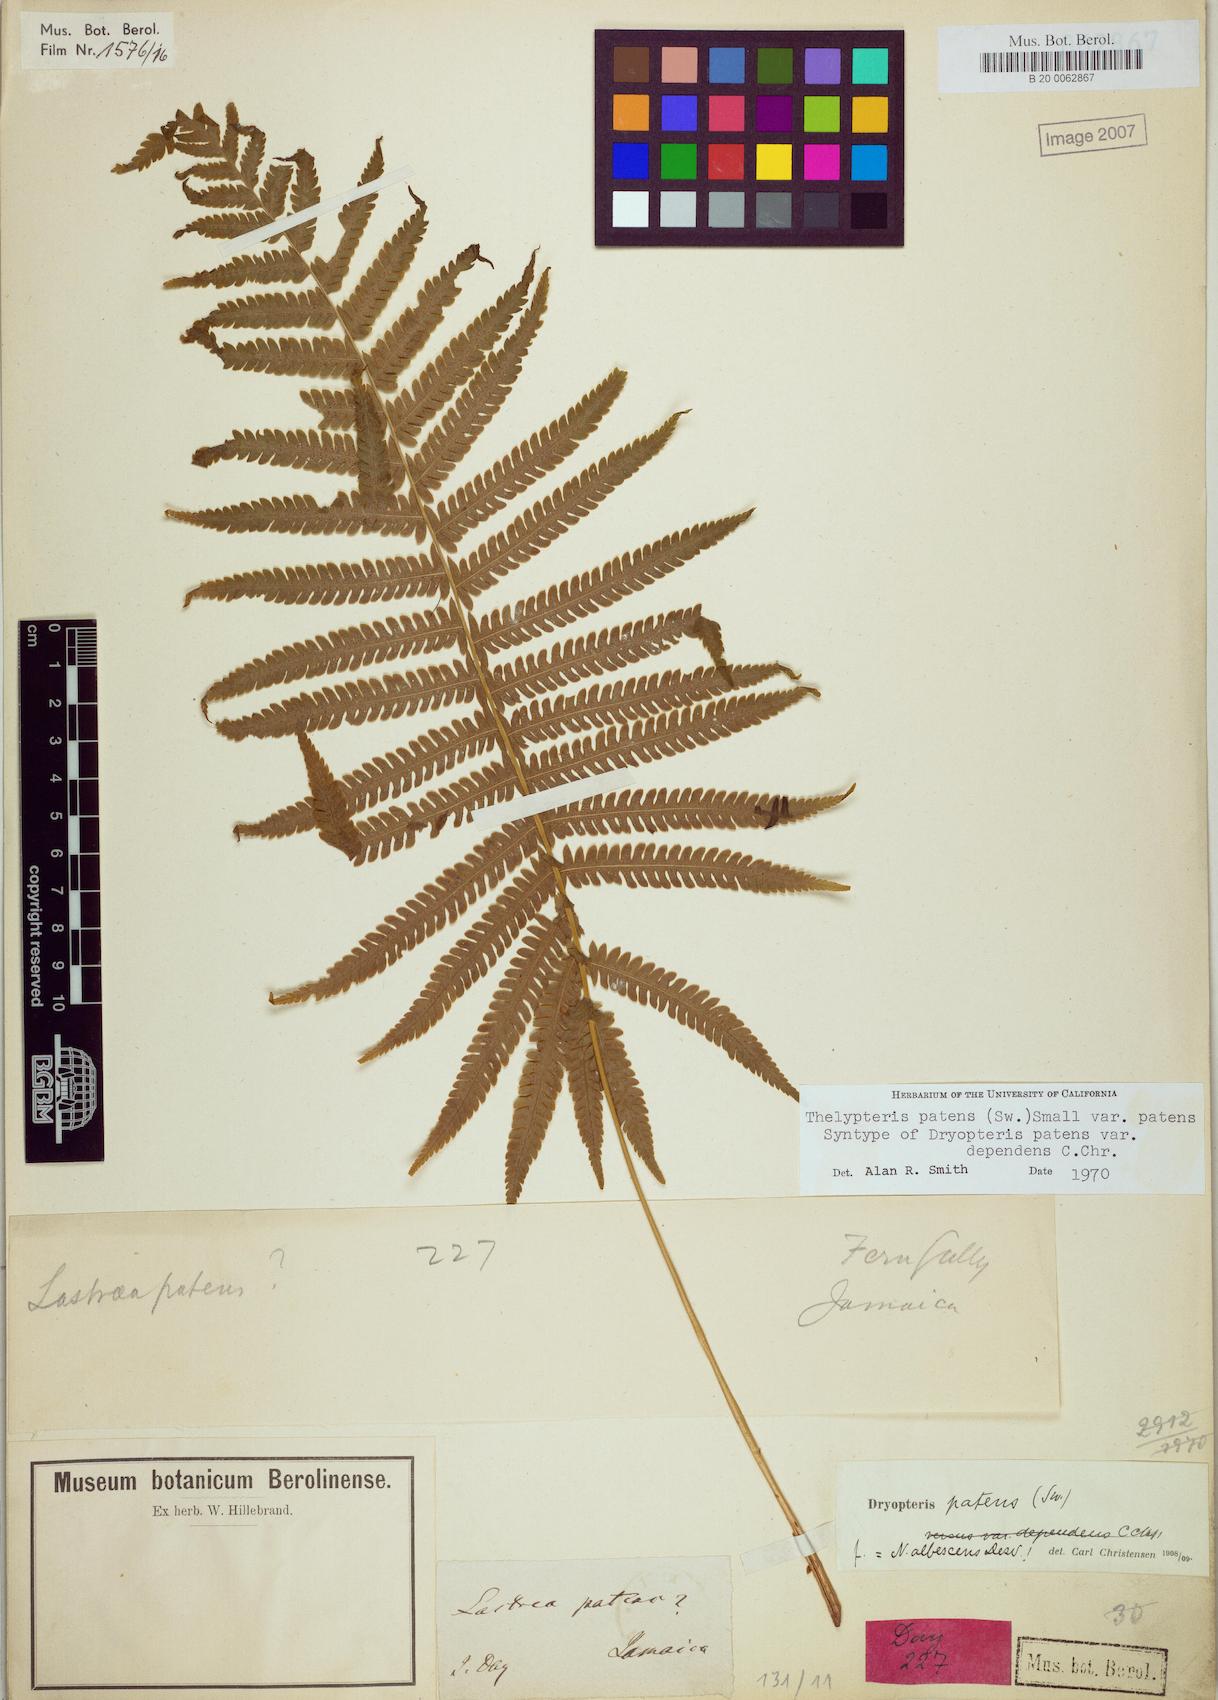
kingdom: Plantae
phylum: Tracheophyta
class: Polypodiopsida
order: Polypodiales
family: Thelypteridaceae
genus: Pelazoneuron
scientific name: Pelazoneuron patens
